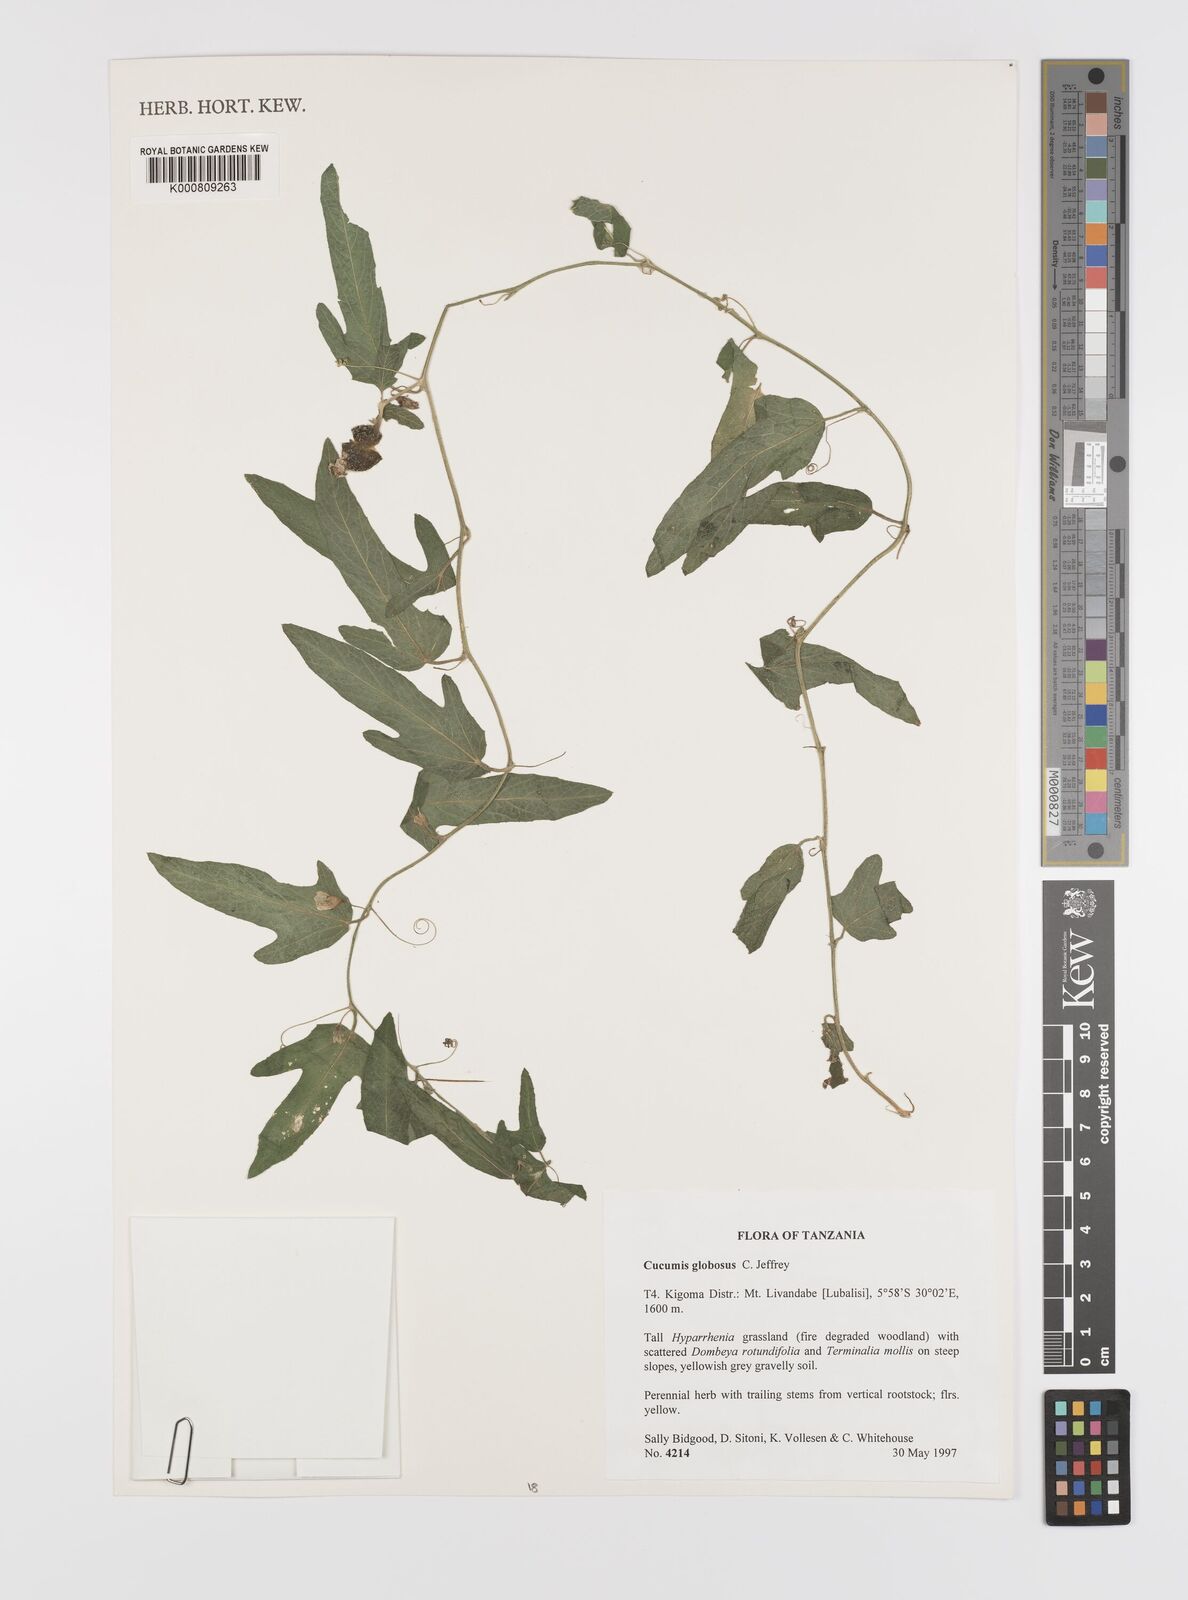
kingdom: Plantae
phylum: Tracheophyta
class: Magnoliopsida
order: Cucurbitales
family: Cucurbitaceae
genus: Cucumis
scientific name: Cucumis globosus
